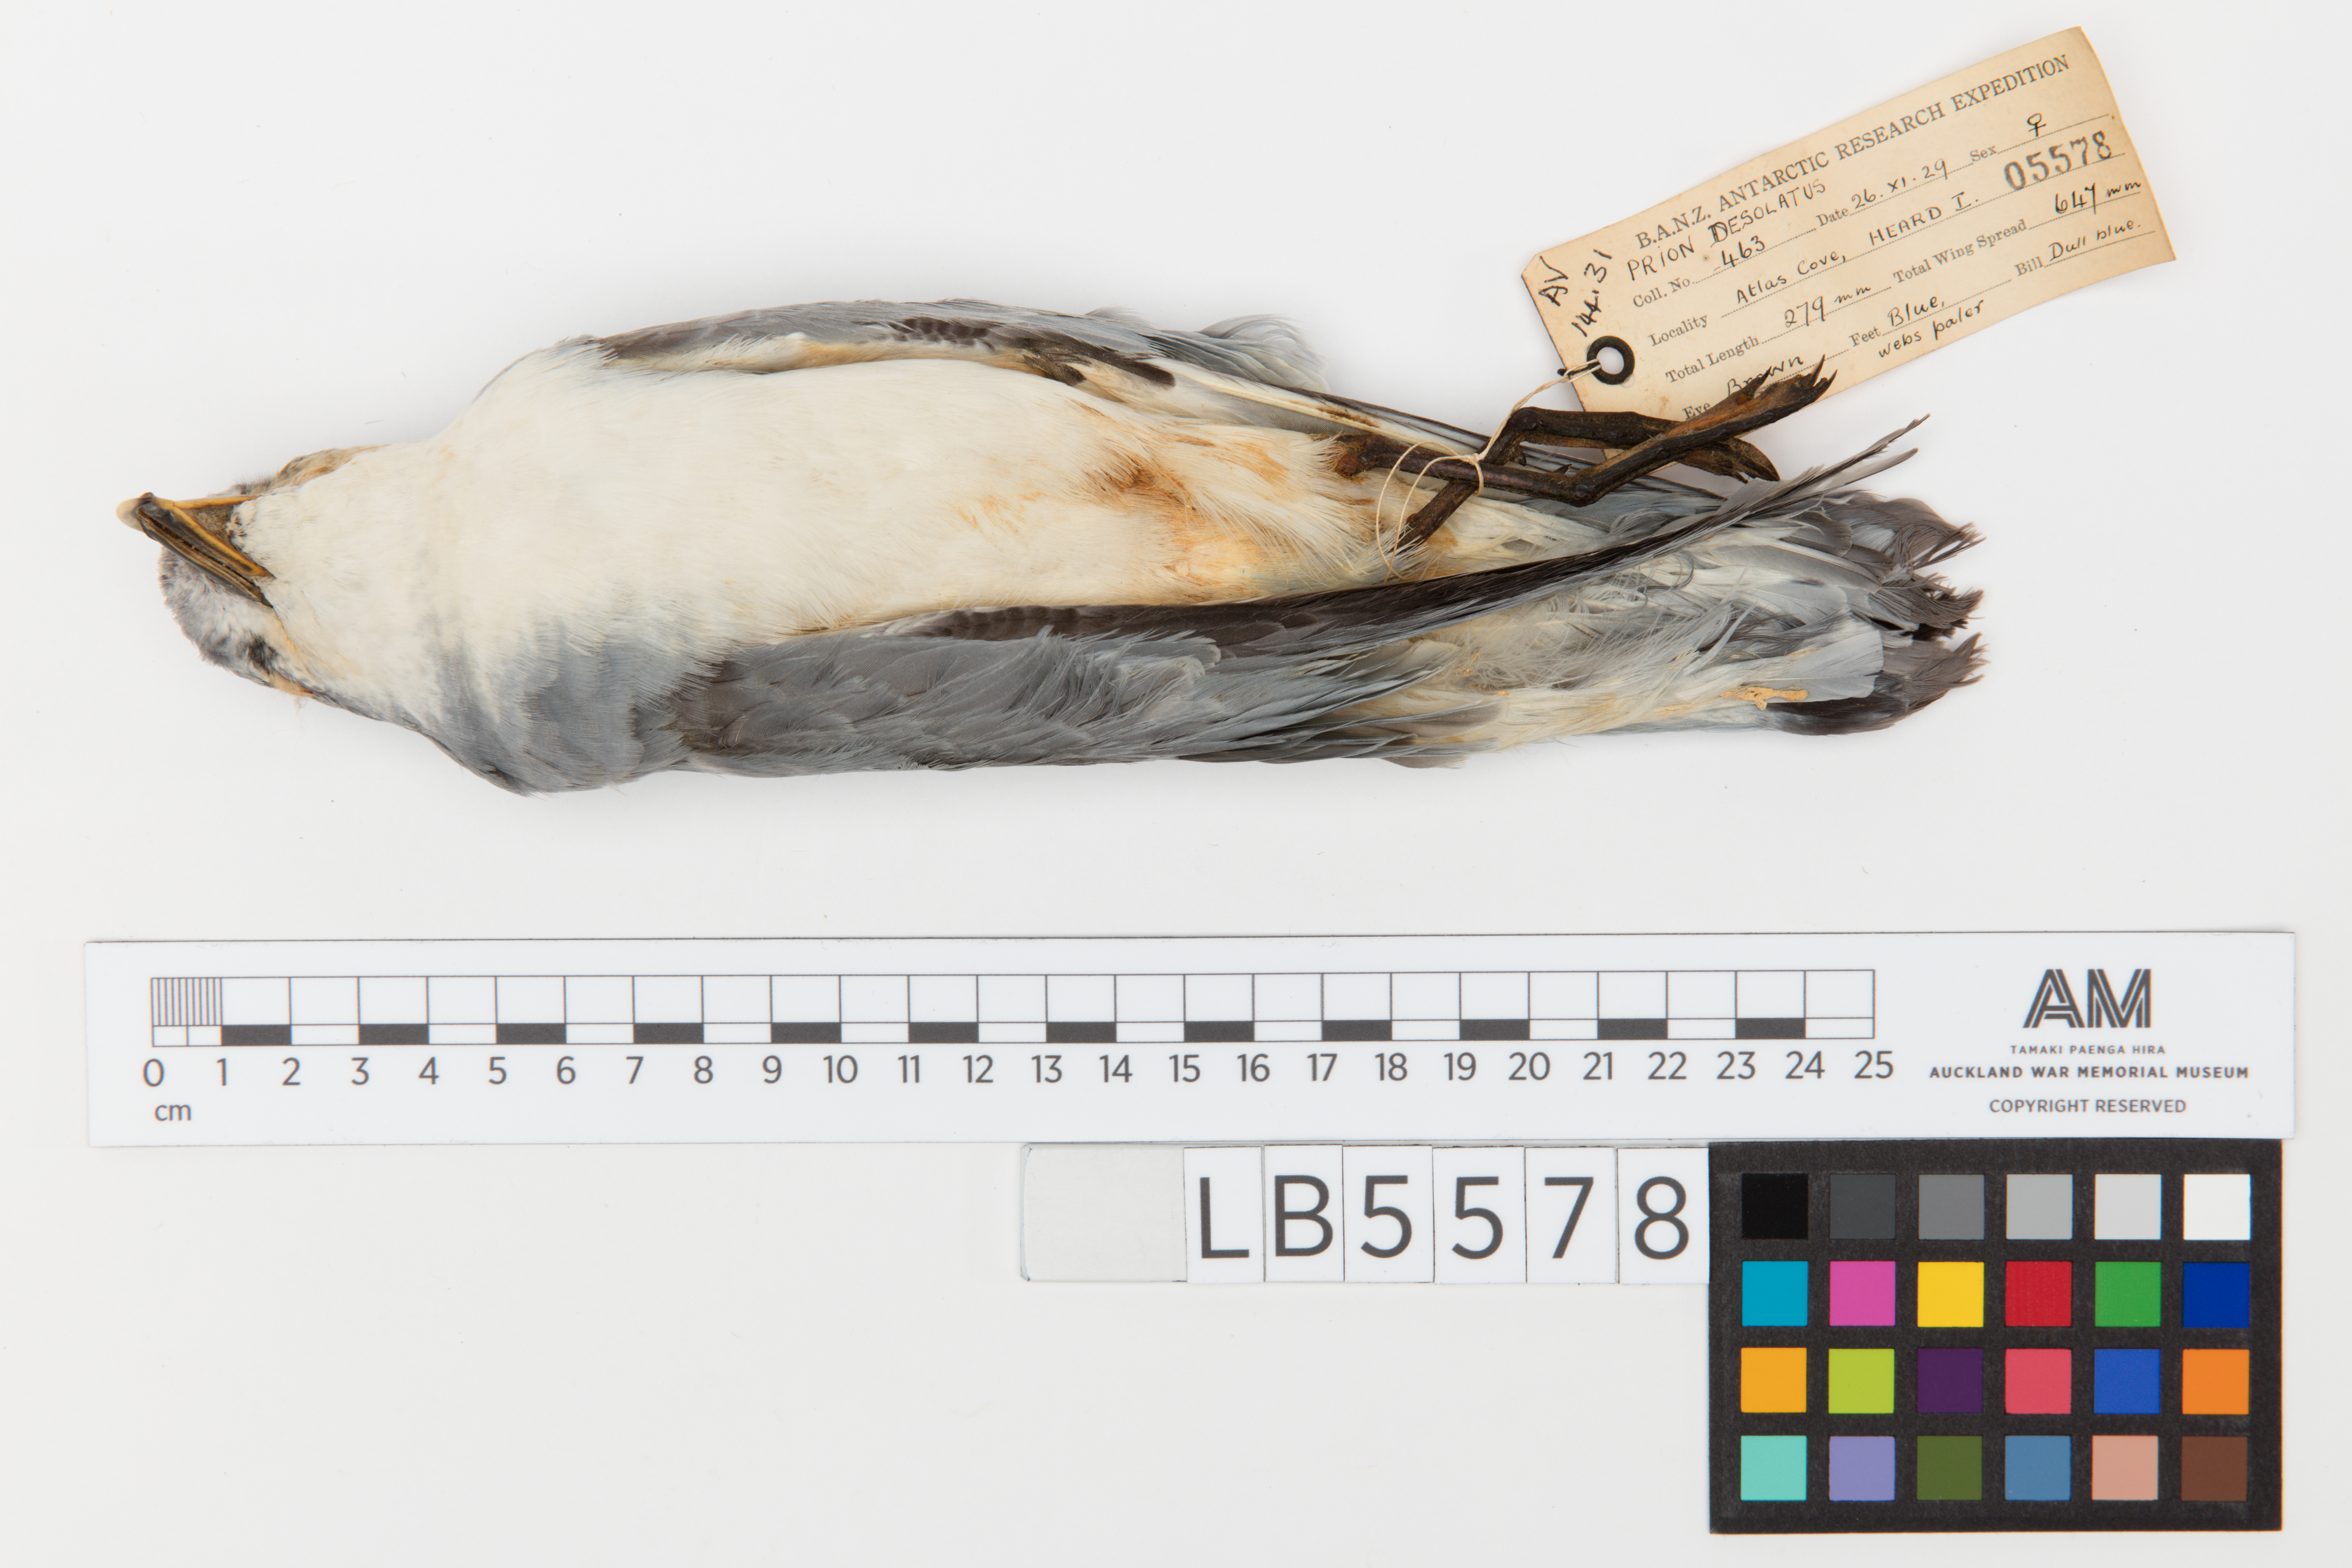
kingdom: Animalia
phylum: Chordata
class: Aves
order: Procellariiformes
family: Procellariidae
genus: Pachyptila
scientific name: Pachyptila desolata
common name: Antarctic prion
